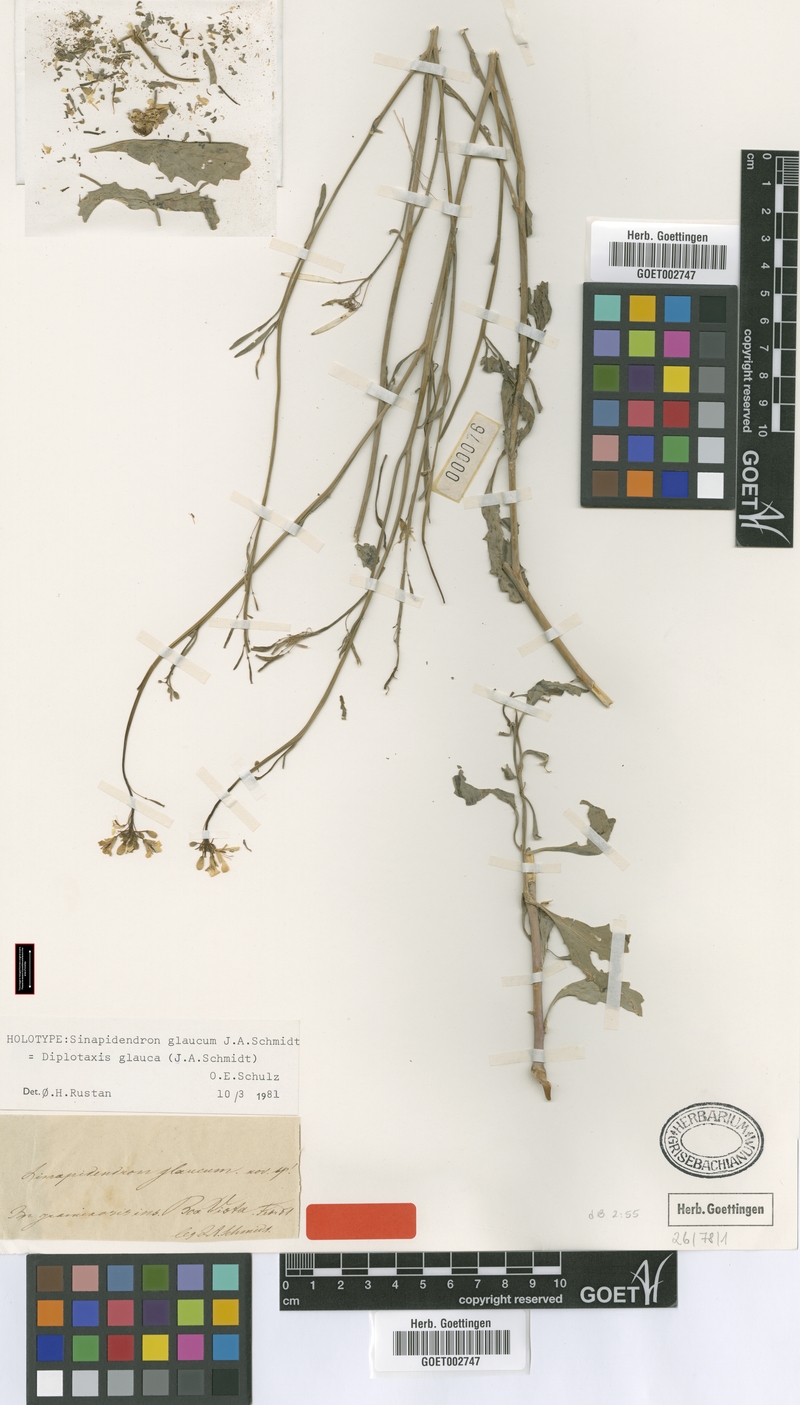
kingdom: Plantae
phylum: Tracheophyta
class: Magnoliopsida
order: Brassicales
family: Brassicaceae
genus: Diplotaxis
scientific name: Diplotaxis glauca
